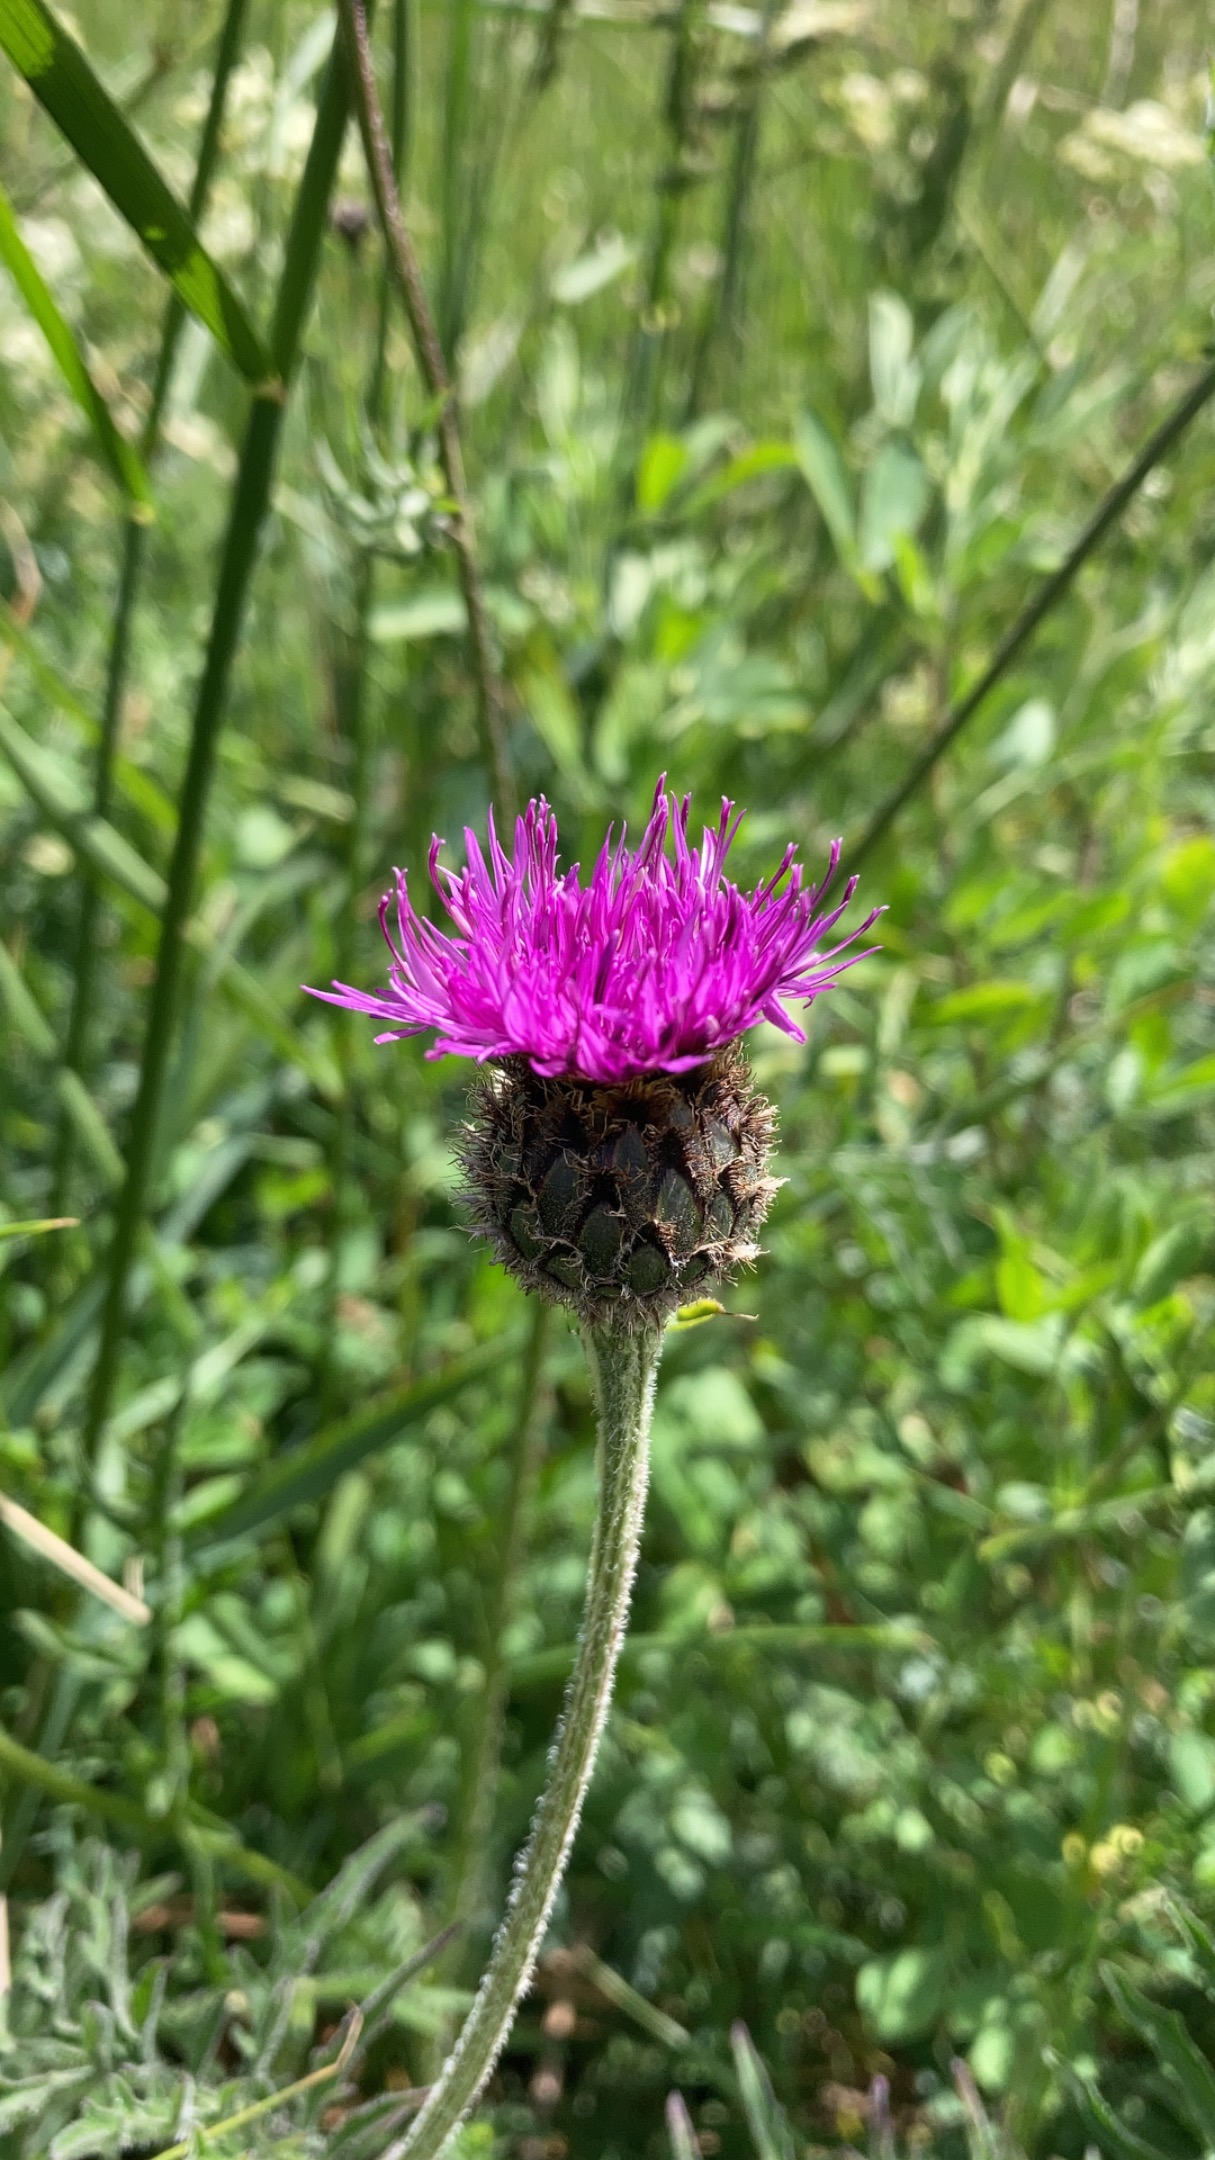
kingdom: Plantae
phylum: Tracheophyta
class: Magnoliopsida
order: Asterales
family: Asteraceae
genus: Centaurea
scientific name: Centaurea scabiosa
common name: Stor knopurt
